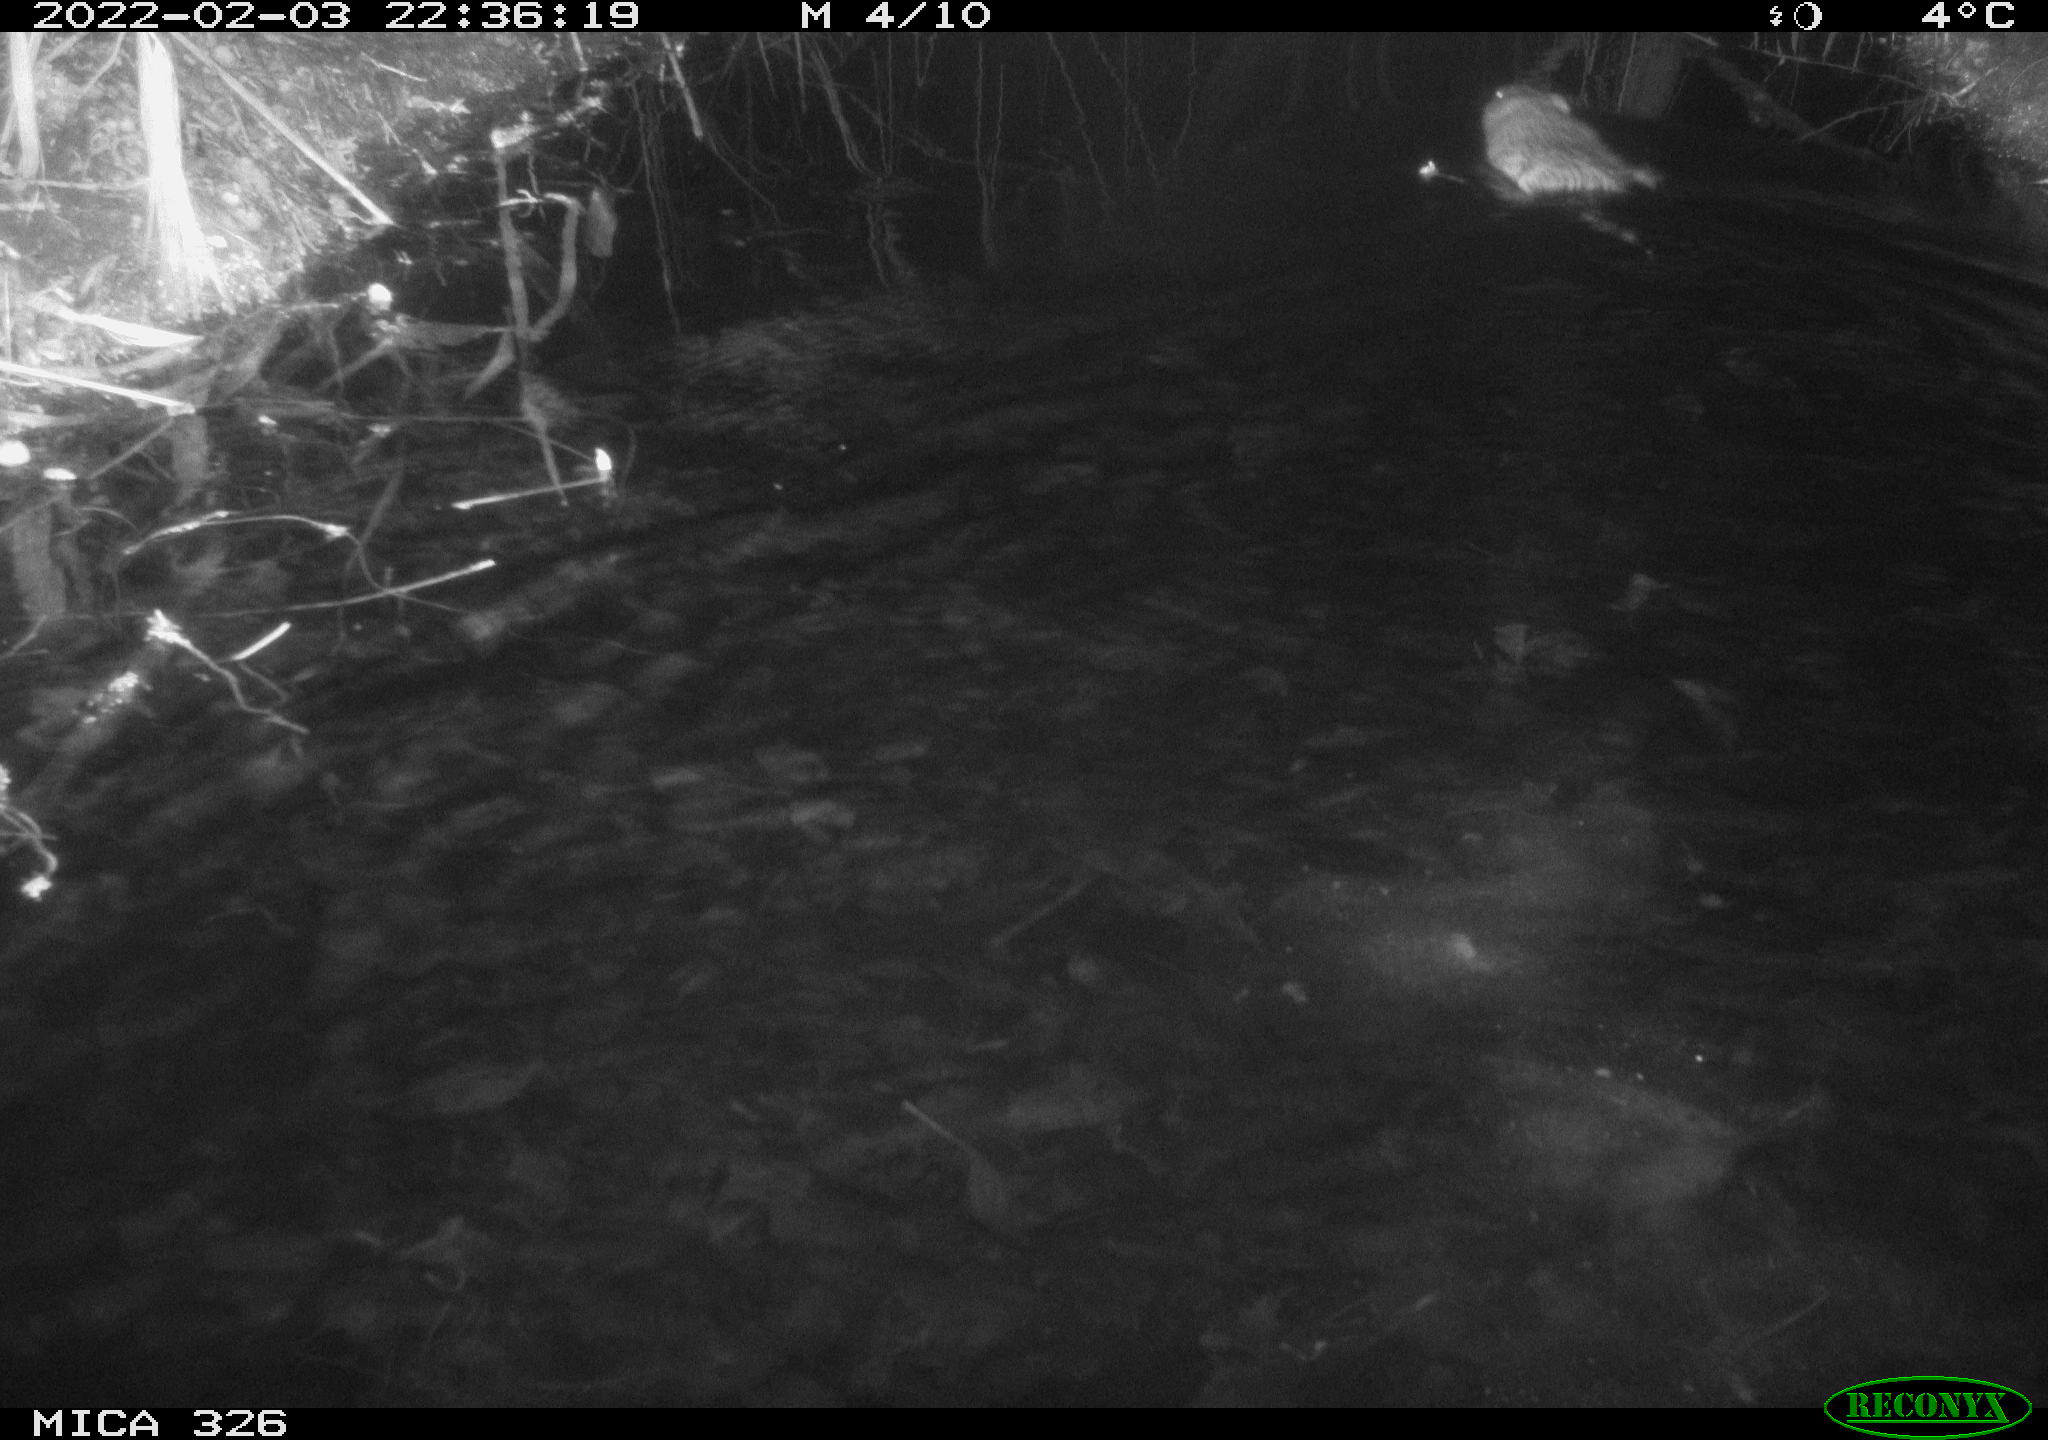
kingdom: Animalia
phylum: Chordata
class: Mammalia
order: Rodentia
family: Cricetidae
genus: Ondatra
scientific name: Ondatra zibethicus
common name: Muskrat
